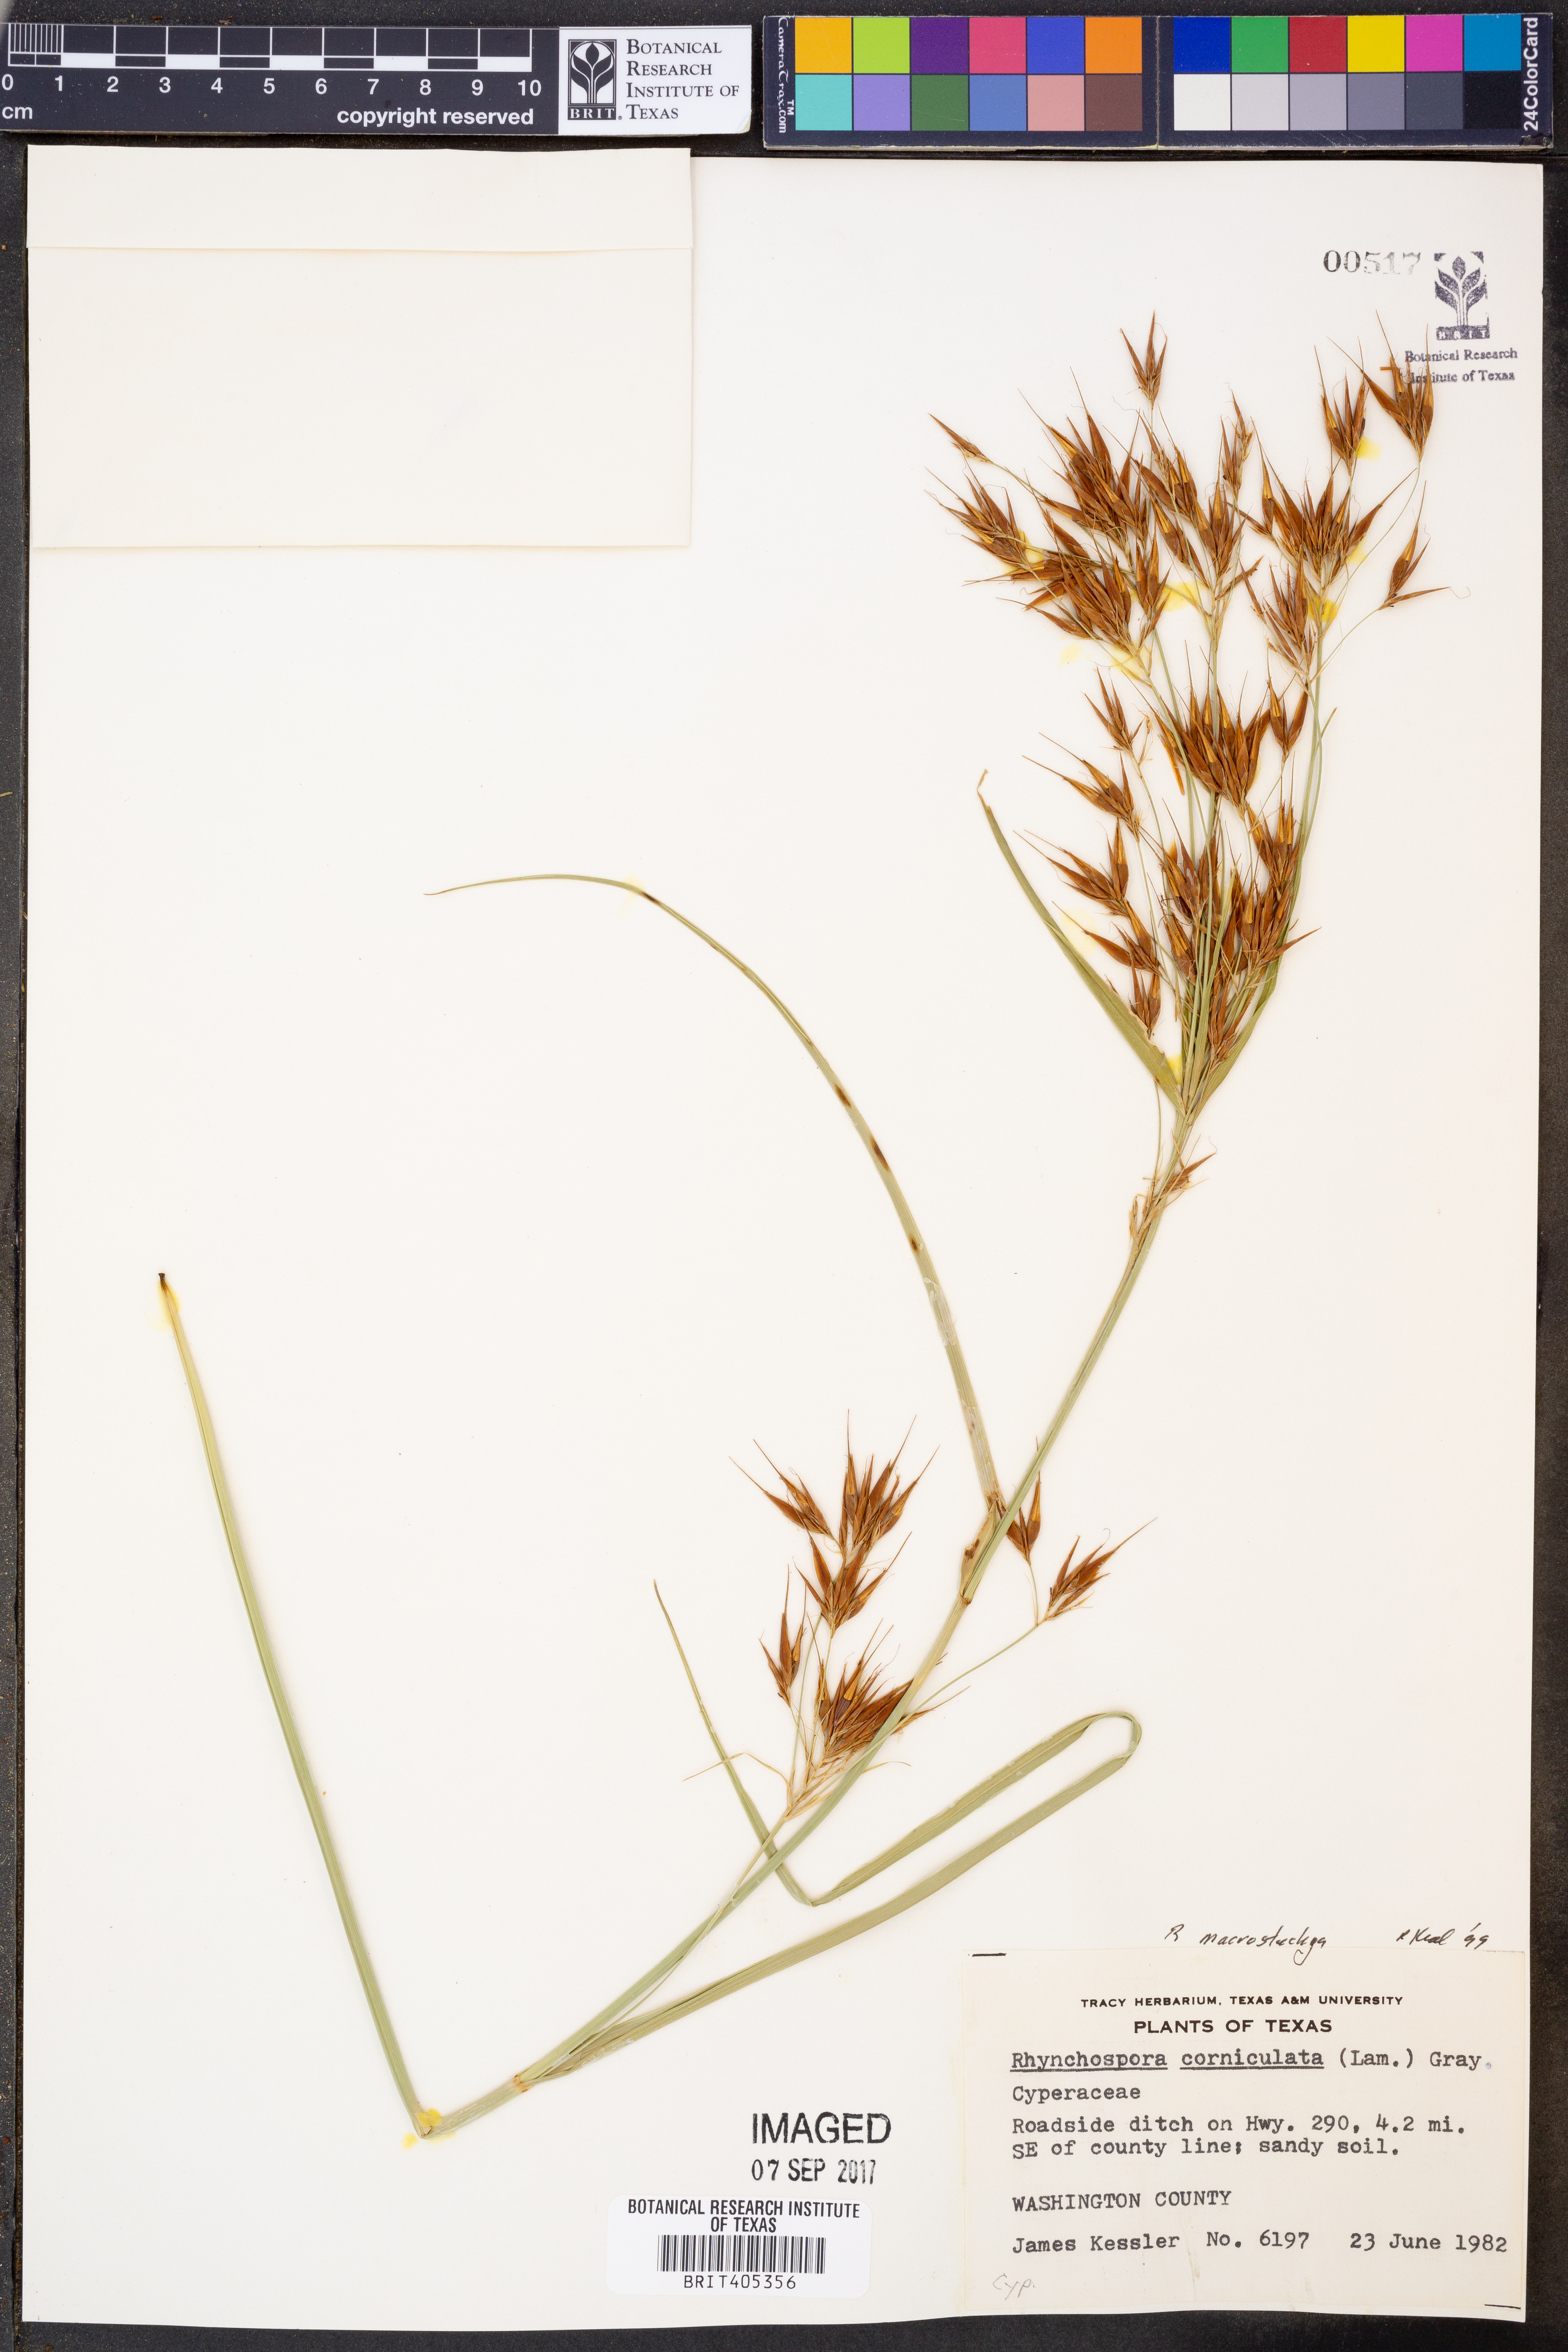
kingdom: Plantae
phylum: Tracheophyta
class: Liliopsida
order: Poales
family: Cyperaceae
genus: Rhynchospora
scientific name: Rhynchospora macrostachya
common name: Tall beakrush
